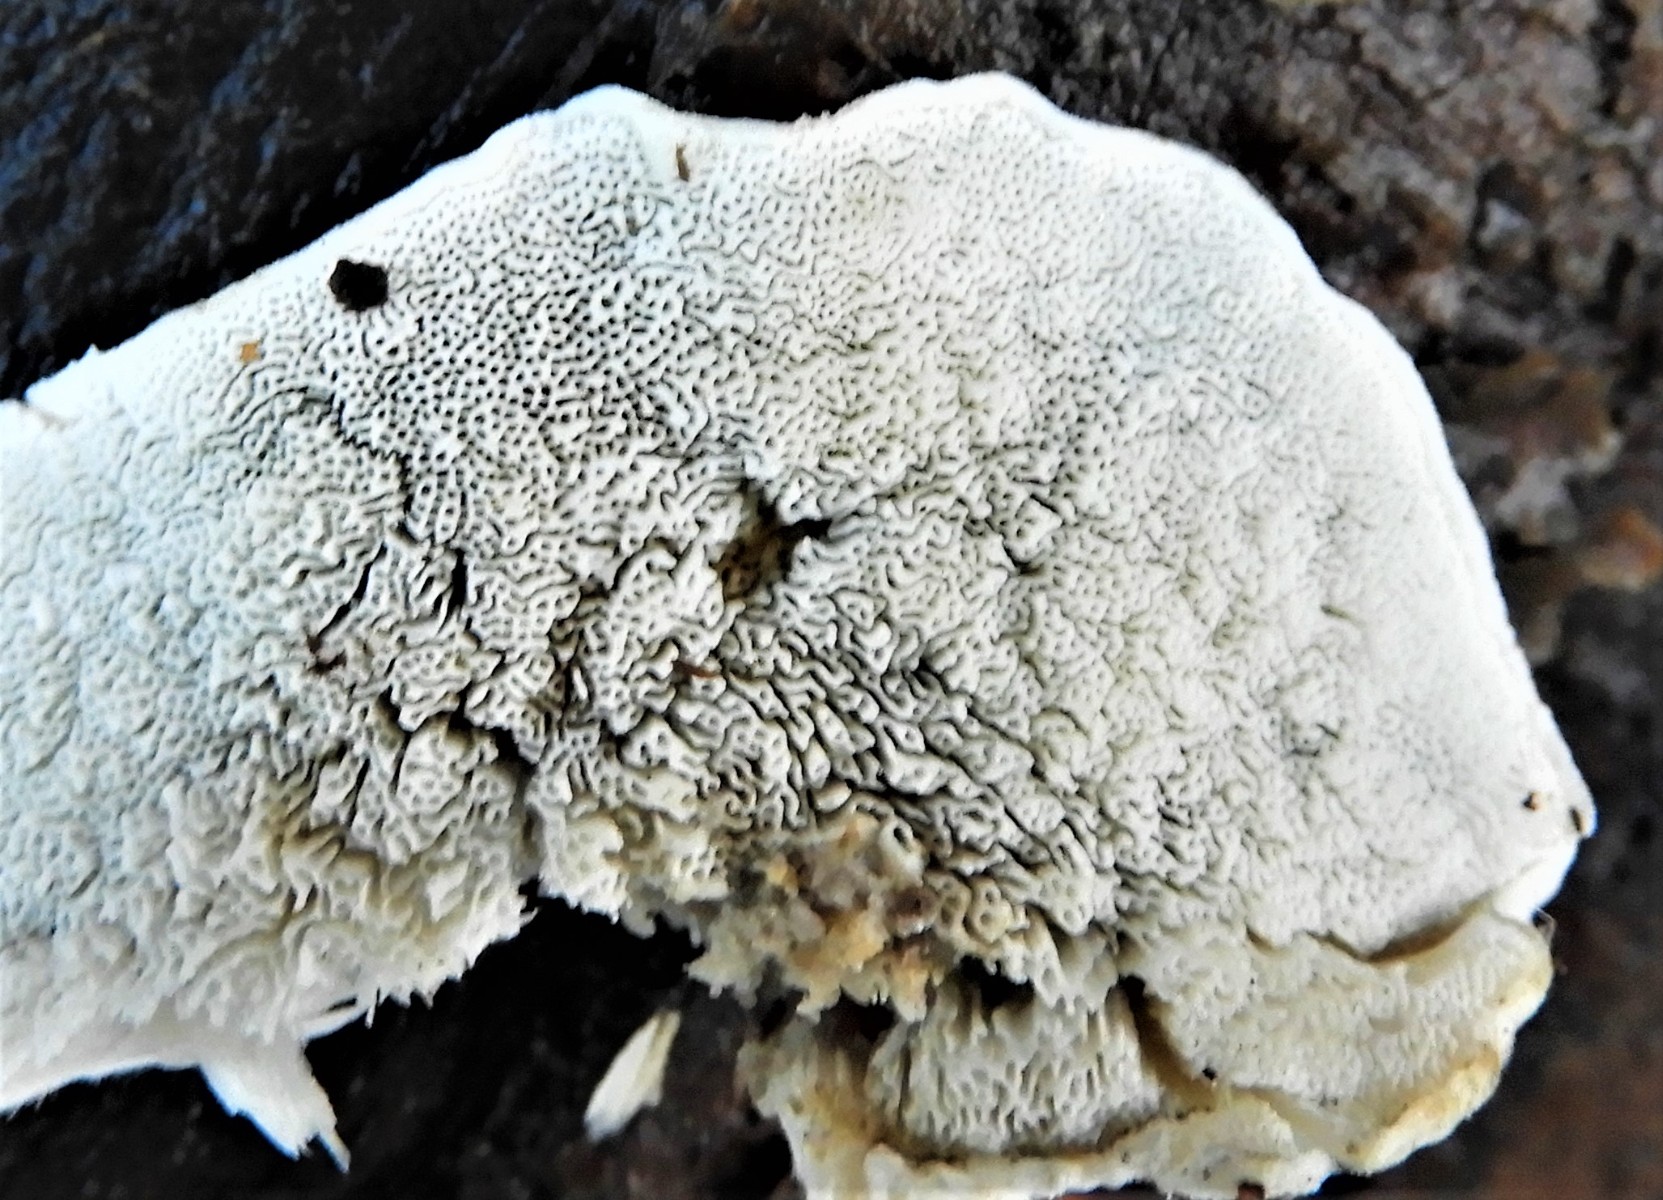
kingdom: Fungi
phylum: Basidiomycota
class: Agaricomycetes
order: Polyporales
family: Polyporaceae
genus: Cyanosporus
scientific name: Cyanosporus alni
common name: blegblå kødporesvamp
